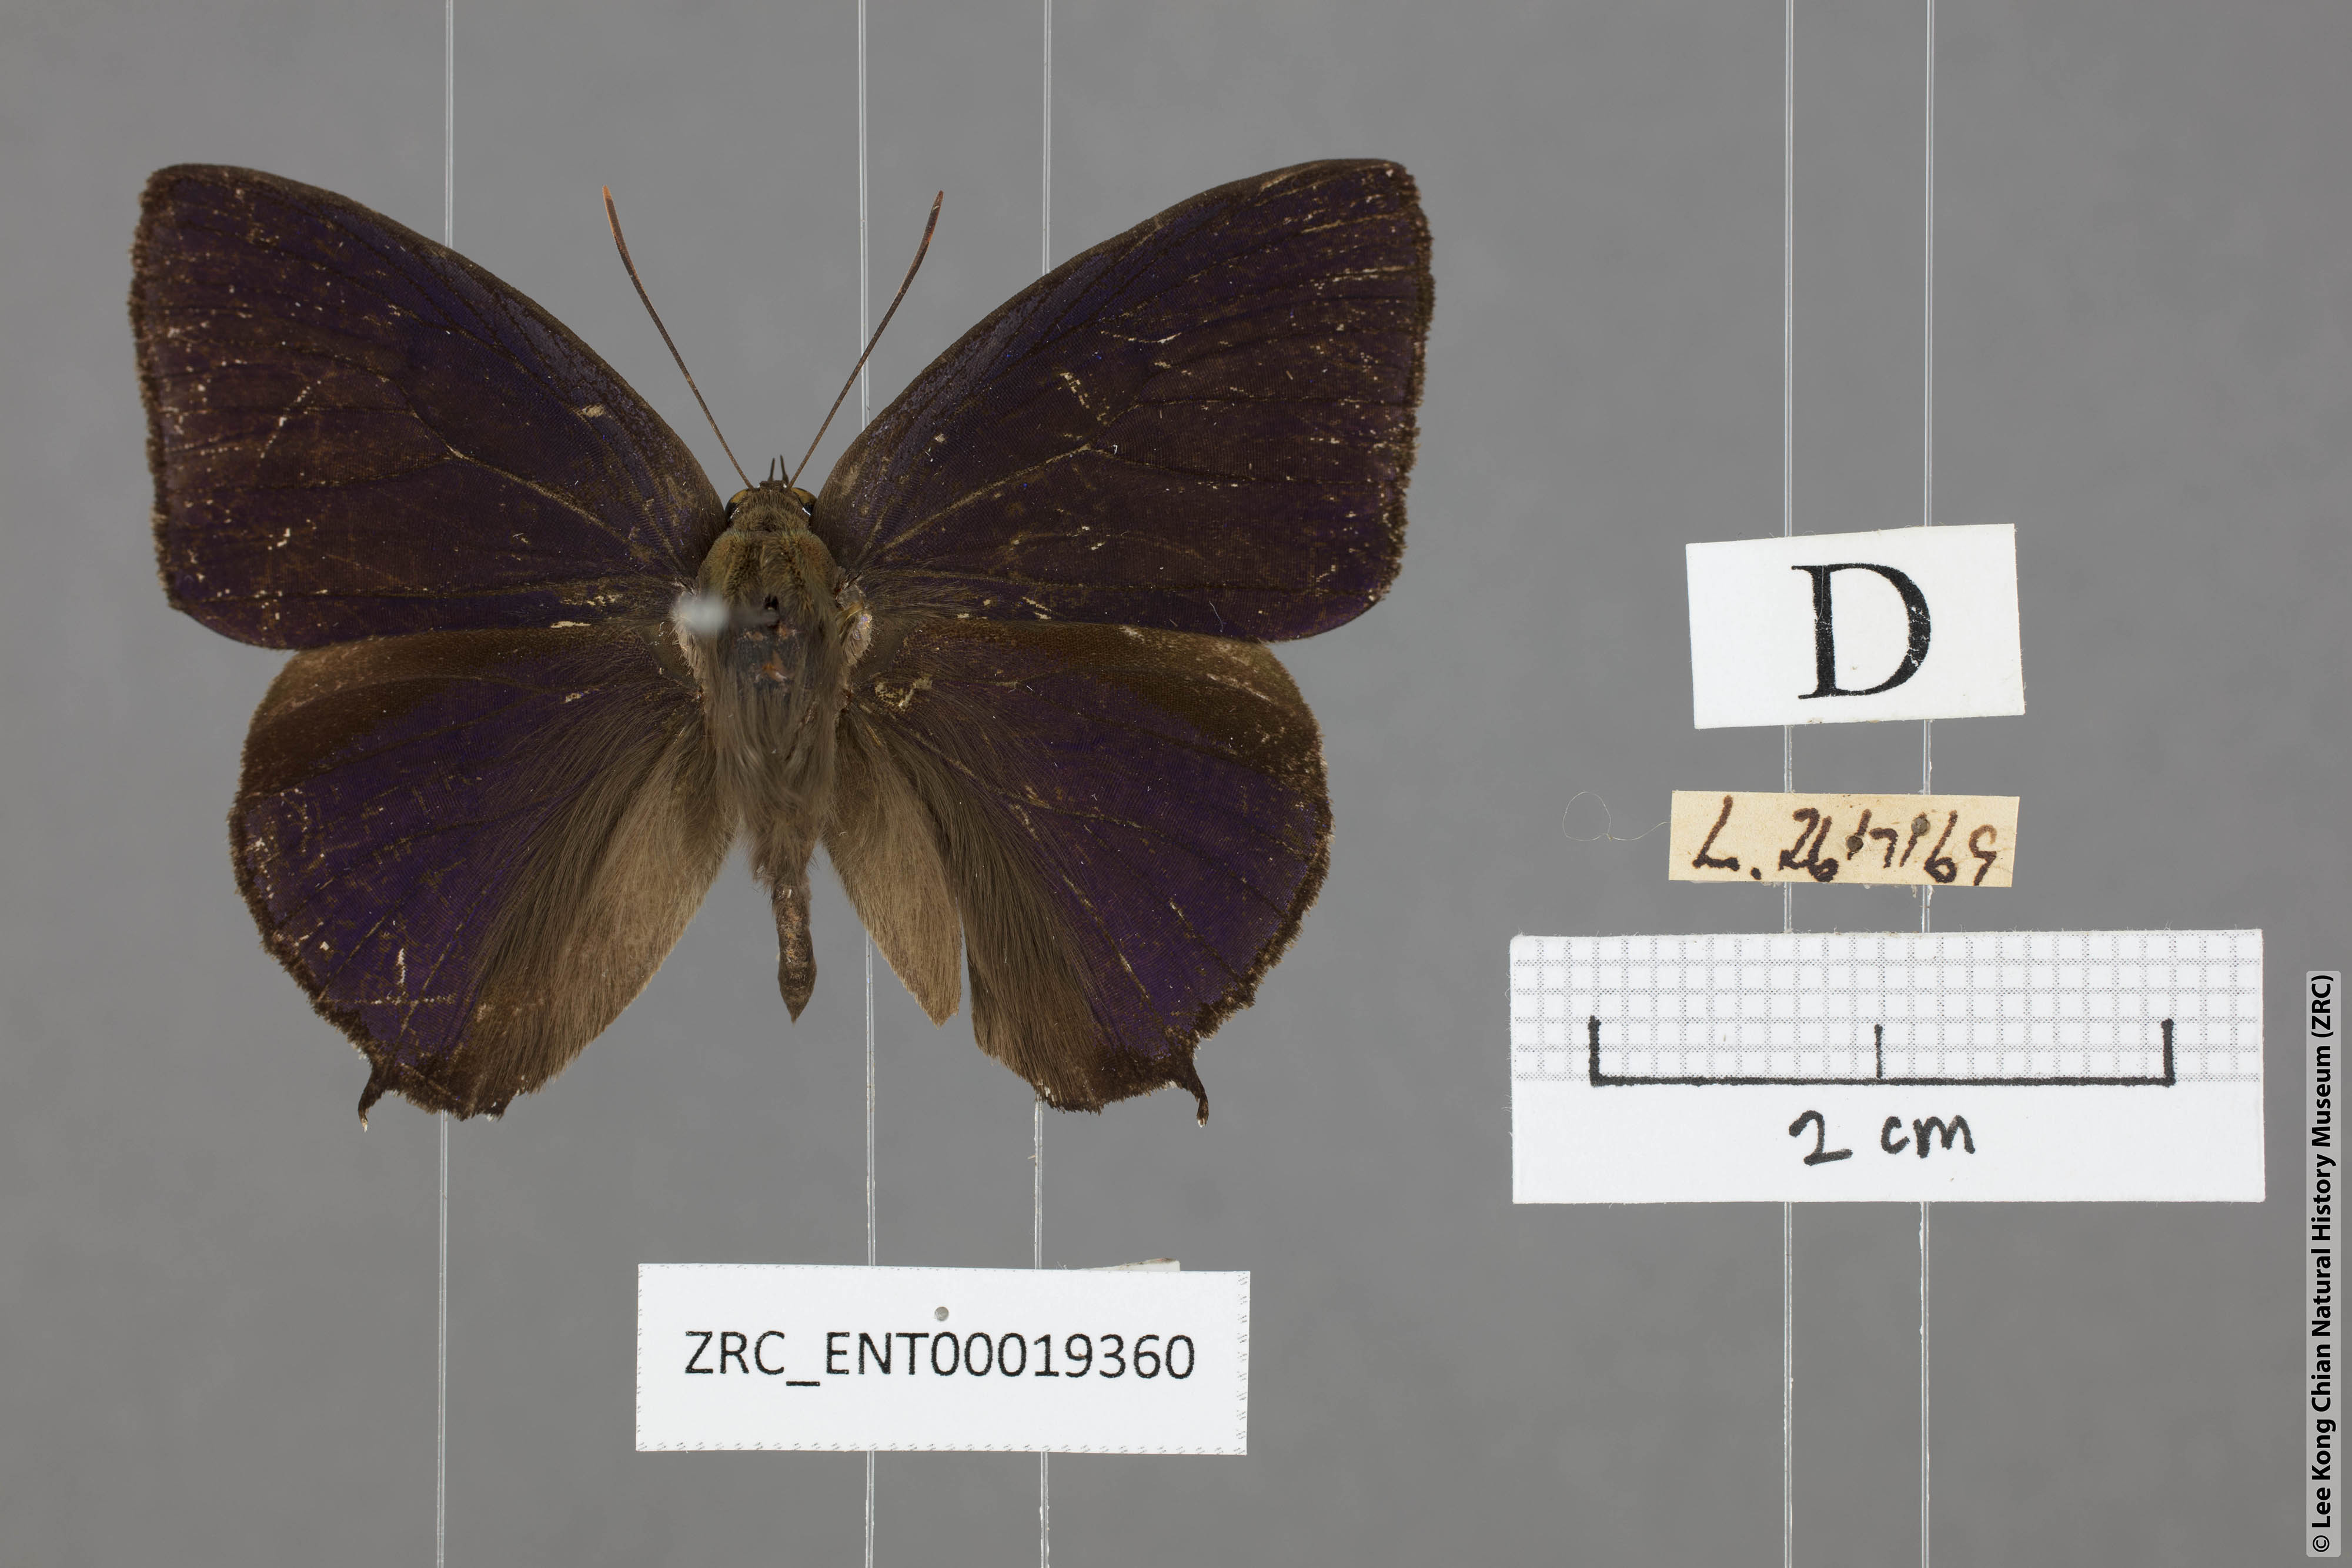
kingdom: Animalia
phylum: Arthropoda
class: Insecta
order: Lepidoptera
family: Lycaenidae
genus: Arhopala
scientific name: Arhopala corinda
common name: Ultramarine oakblue
